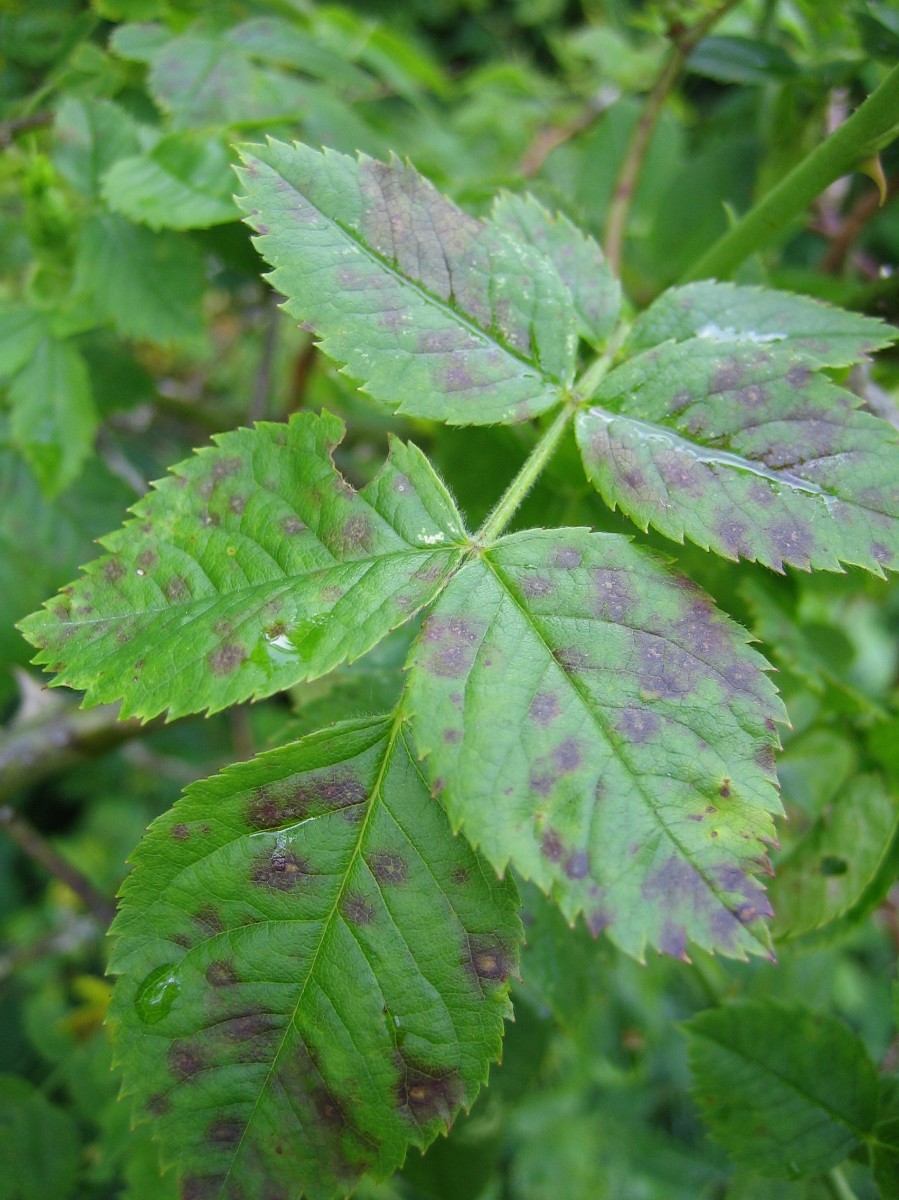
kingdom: Fungi
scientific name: Fungi
